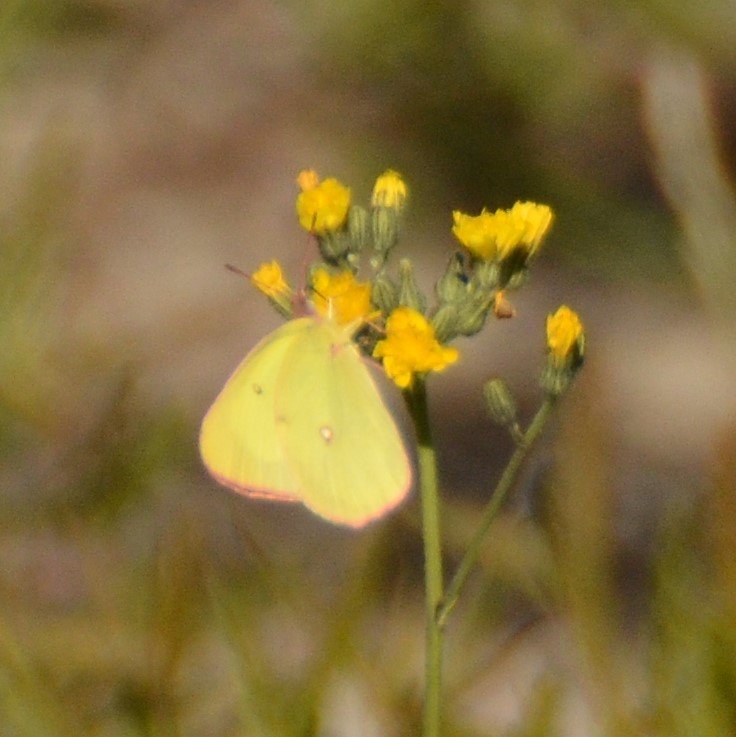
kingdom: Animalia
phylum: Arthropoda
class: Insecta
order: Lepidoptera
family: Pieridae
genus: Colias
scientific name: Colias interior
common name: Pink-edged Sulphur
